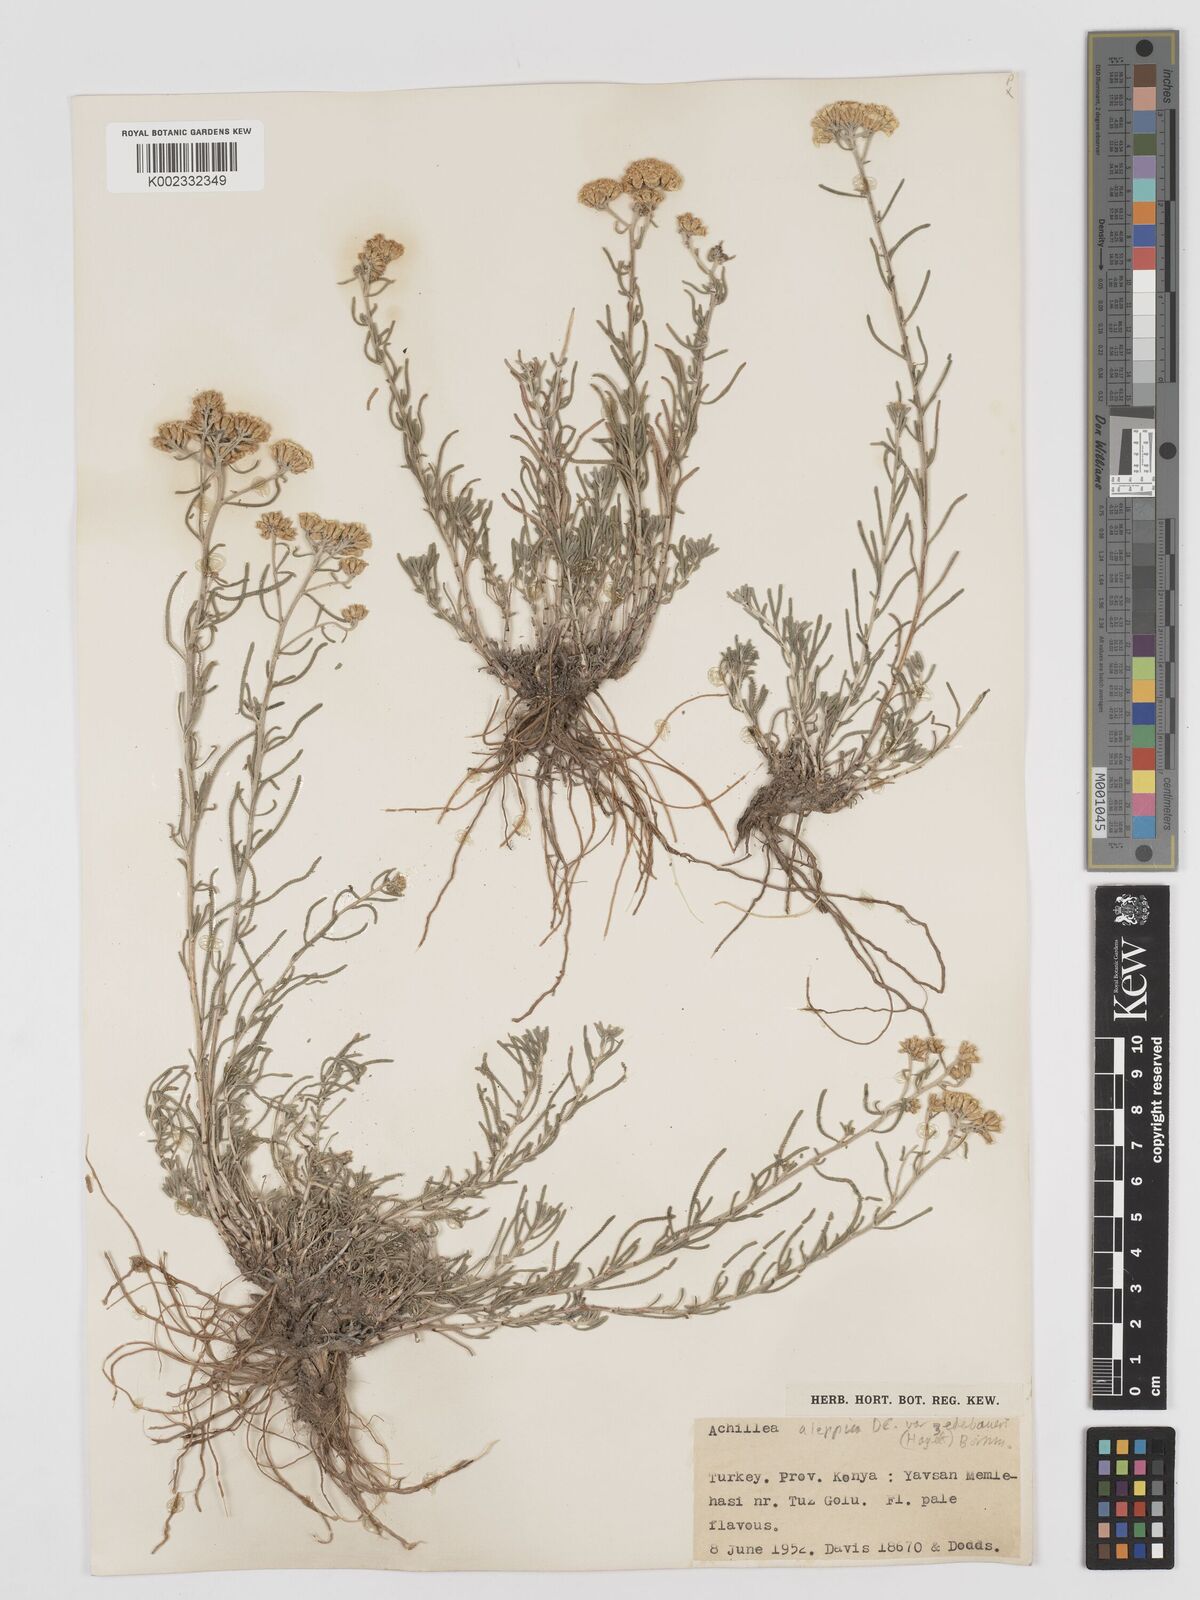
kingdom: Plantae
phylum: Tracheophyta
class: Magnoliopsida
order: Asterales
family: Asteraceae
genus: Achillea
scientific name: Achillea aleppica
